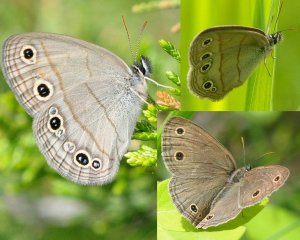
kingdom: Animalia
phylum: Arthropoda
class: Insecta
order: Lepidoptera
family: Nymphalidae
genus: Euptychia
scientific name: Euptychia cymela
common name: Little Wood Satyr
